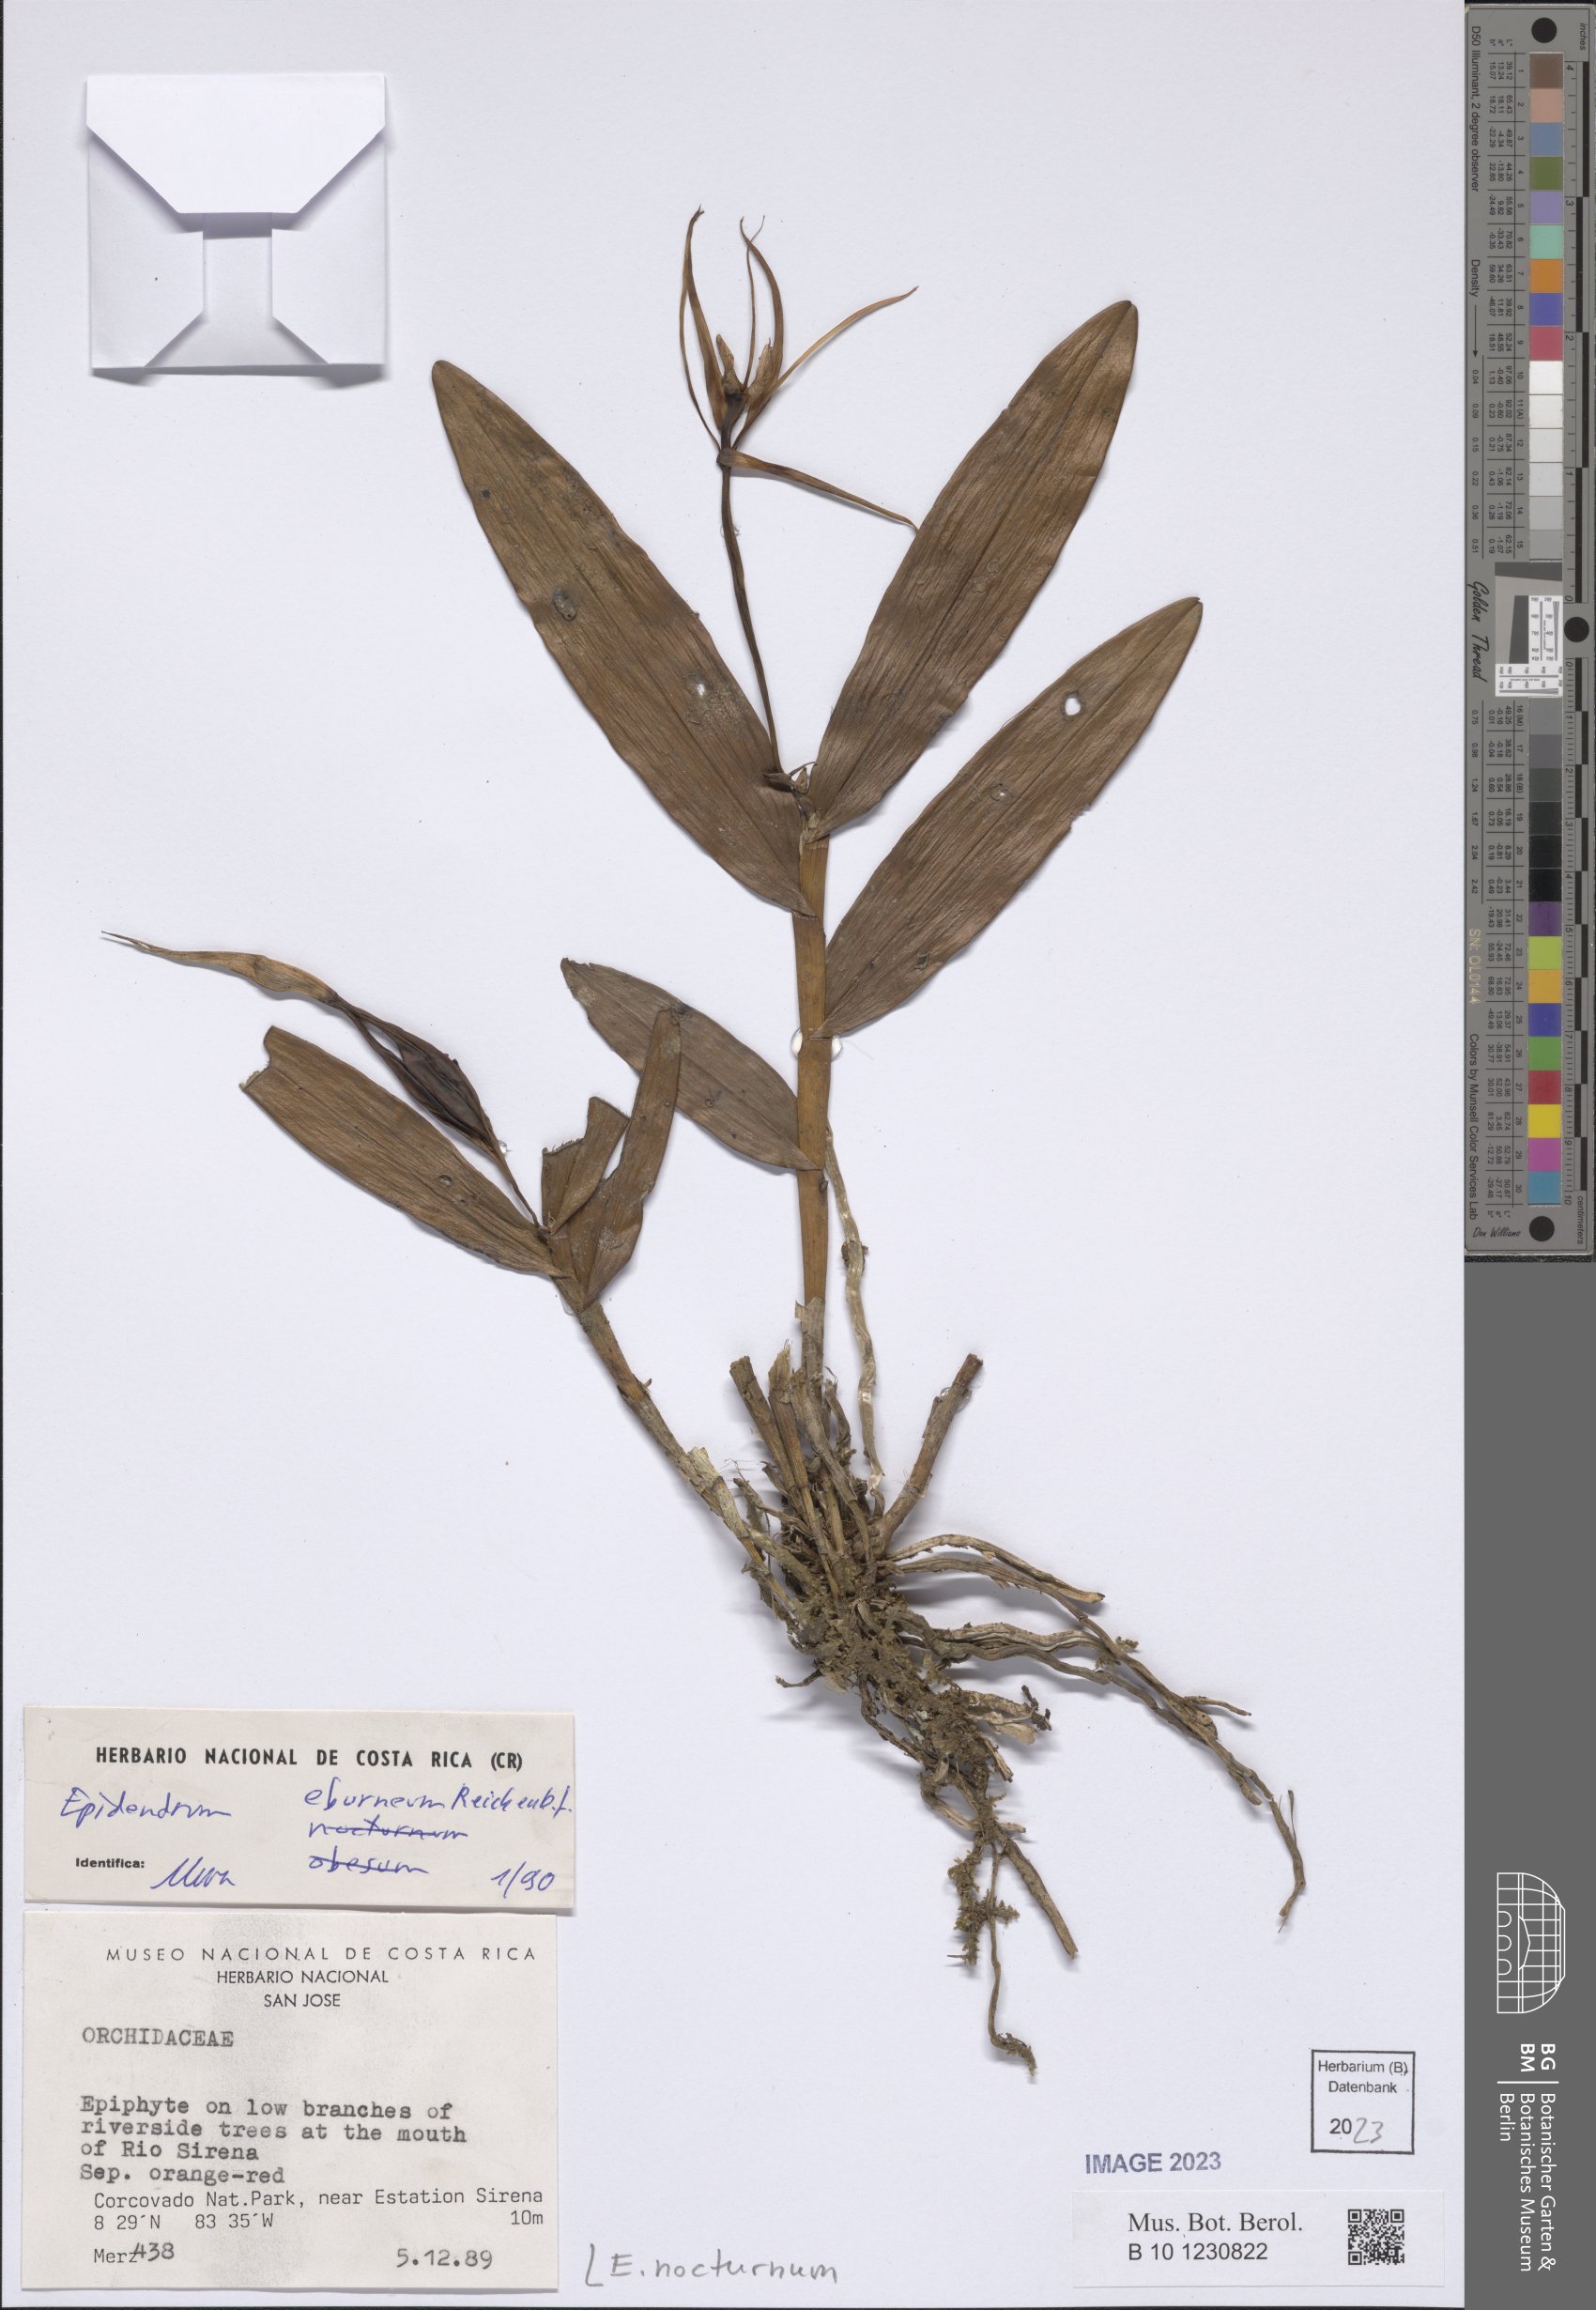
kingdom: Plantae
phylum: Tracheophyta
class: Liliopsida
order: Asparagales
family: Orchidaceae
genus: Epidendrum
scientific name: Epidendrum nocturnum
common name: Night scented orchid
